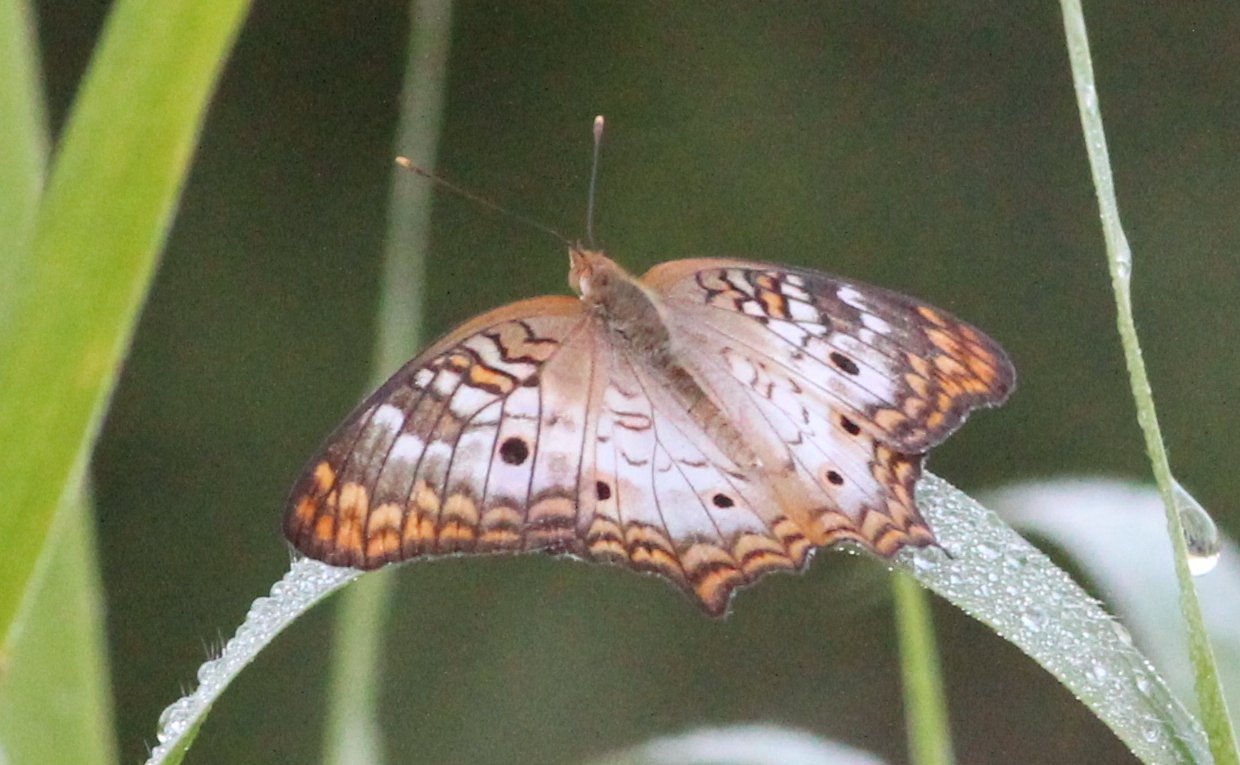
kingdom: Animalia
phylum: Arthropoda
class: Insecta
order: Lepidoptera
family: Nymphalidae
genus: Anartia
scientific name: Anartia jatrophae
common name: White Peacock
